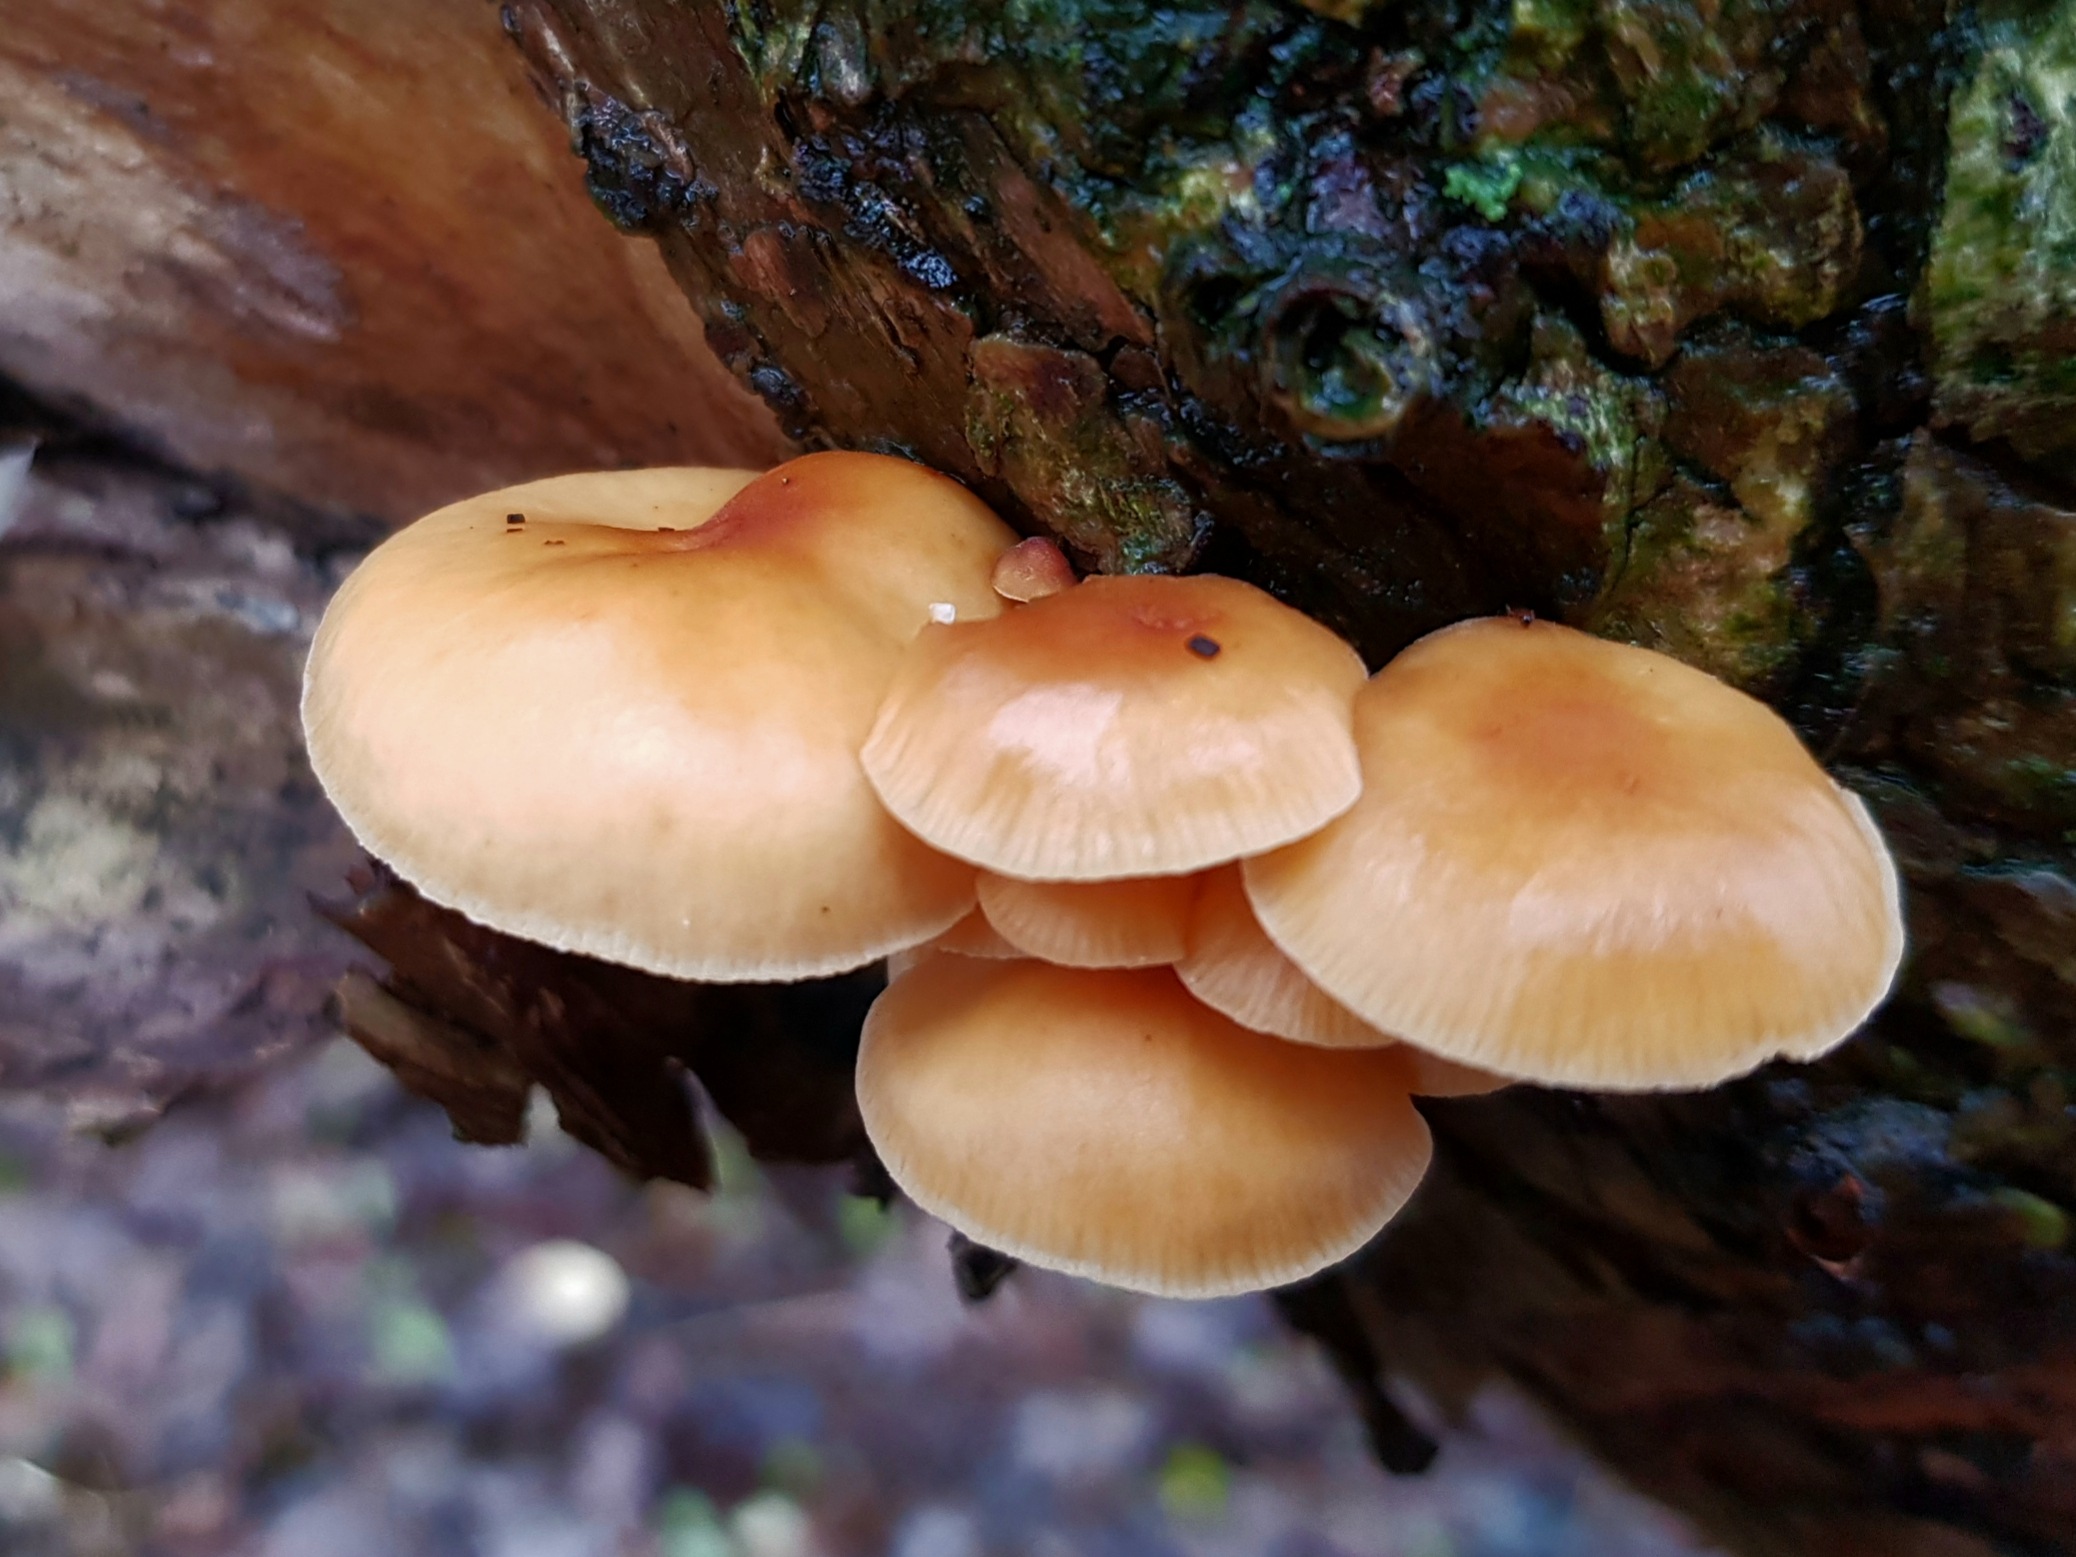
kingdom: Fungi
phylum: Basidiomycota
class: Agaricomycetes
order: Agaricales
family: Physalacriaceae
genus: Flammulina
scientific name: Flammulina velutipes
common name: gul fløjlsfod
